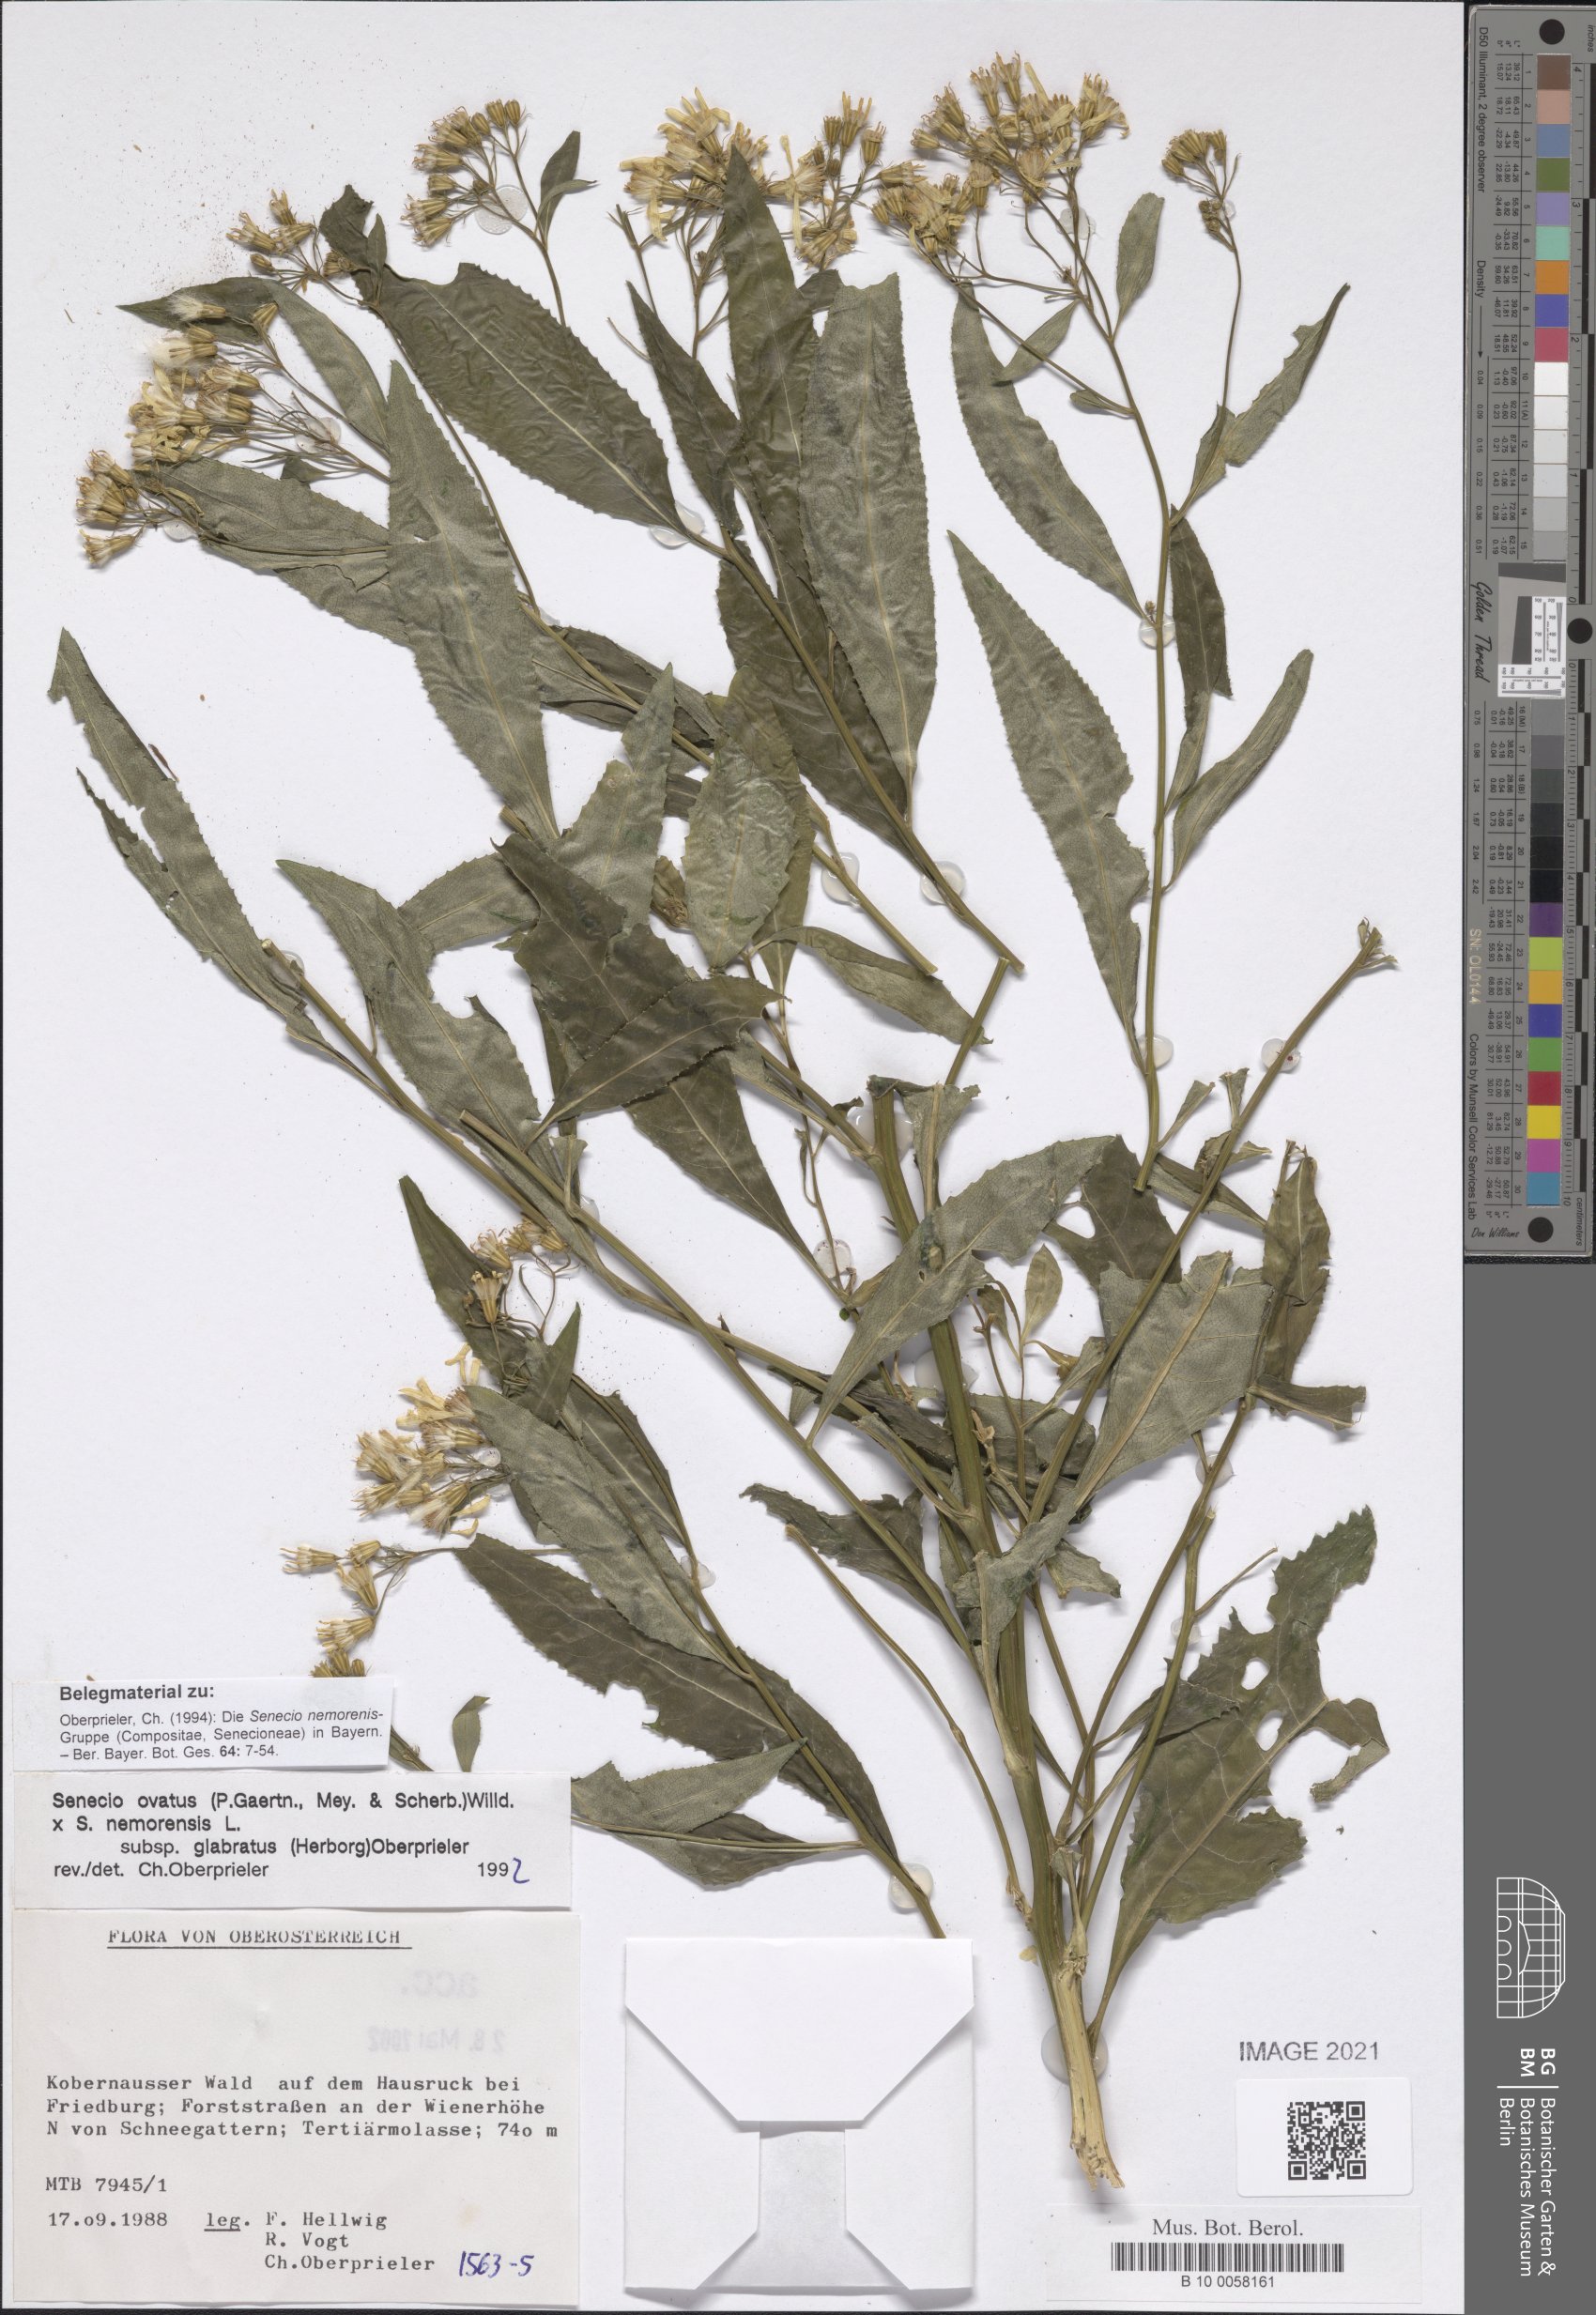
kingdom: Plantae
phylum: Tracheophyta
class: Magnoliopsida
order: Asterales
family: Asteraceae
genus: Senecio
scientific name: Senecio ovatus
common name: Wood ragwort
